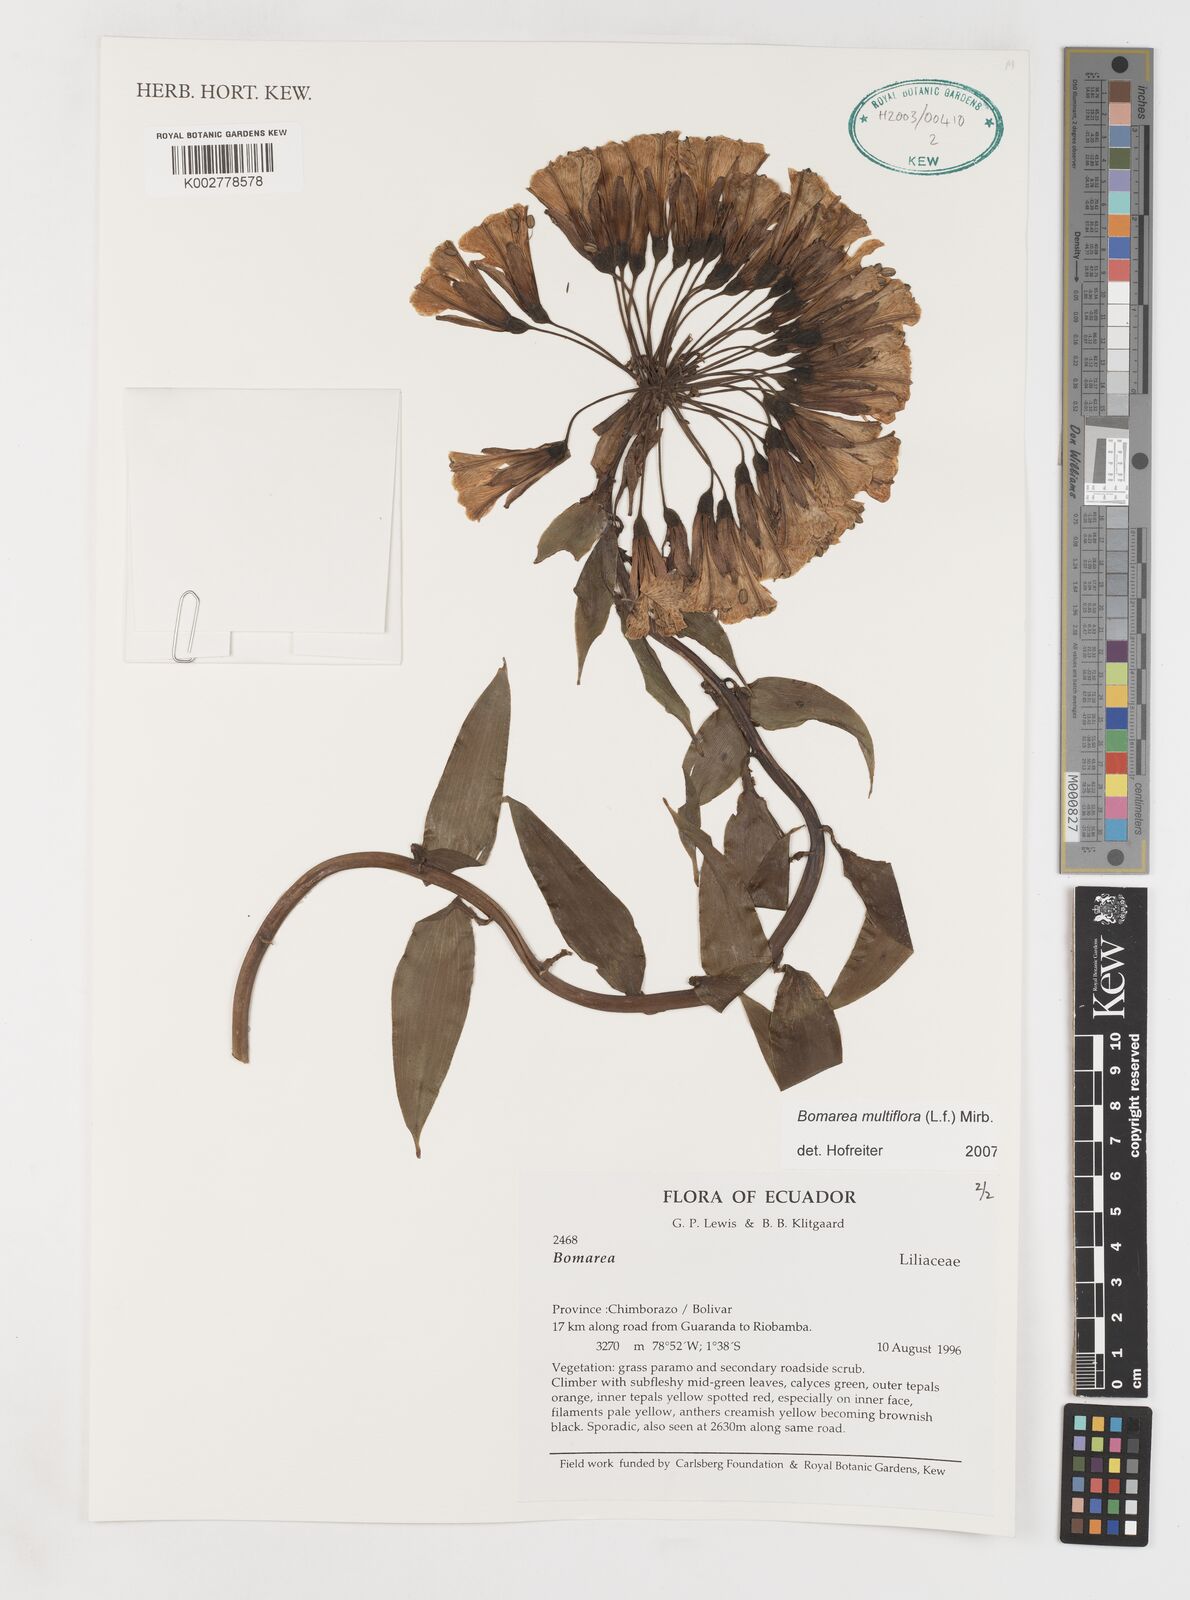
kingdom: Plantae
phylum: Tracheophyta
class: Liliopsida
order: Liliales
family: Alstroemeriaceae
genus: Bomarea
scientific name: Bomarea multiflora
